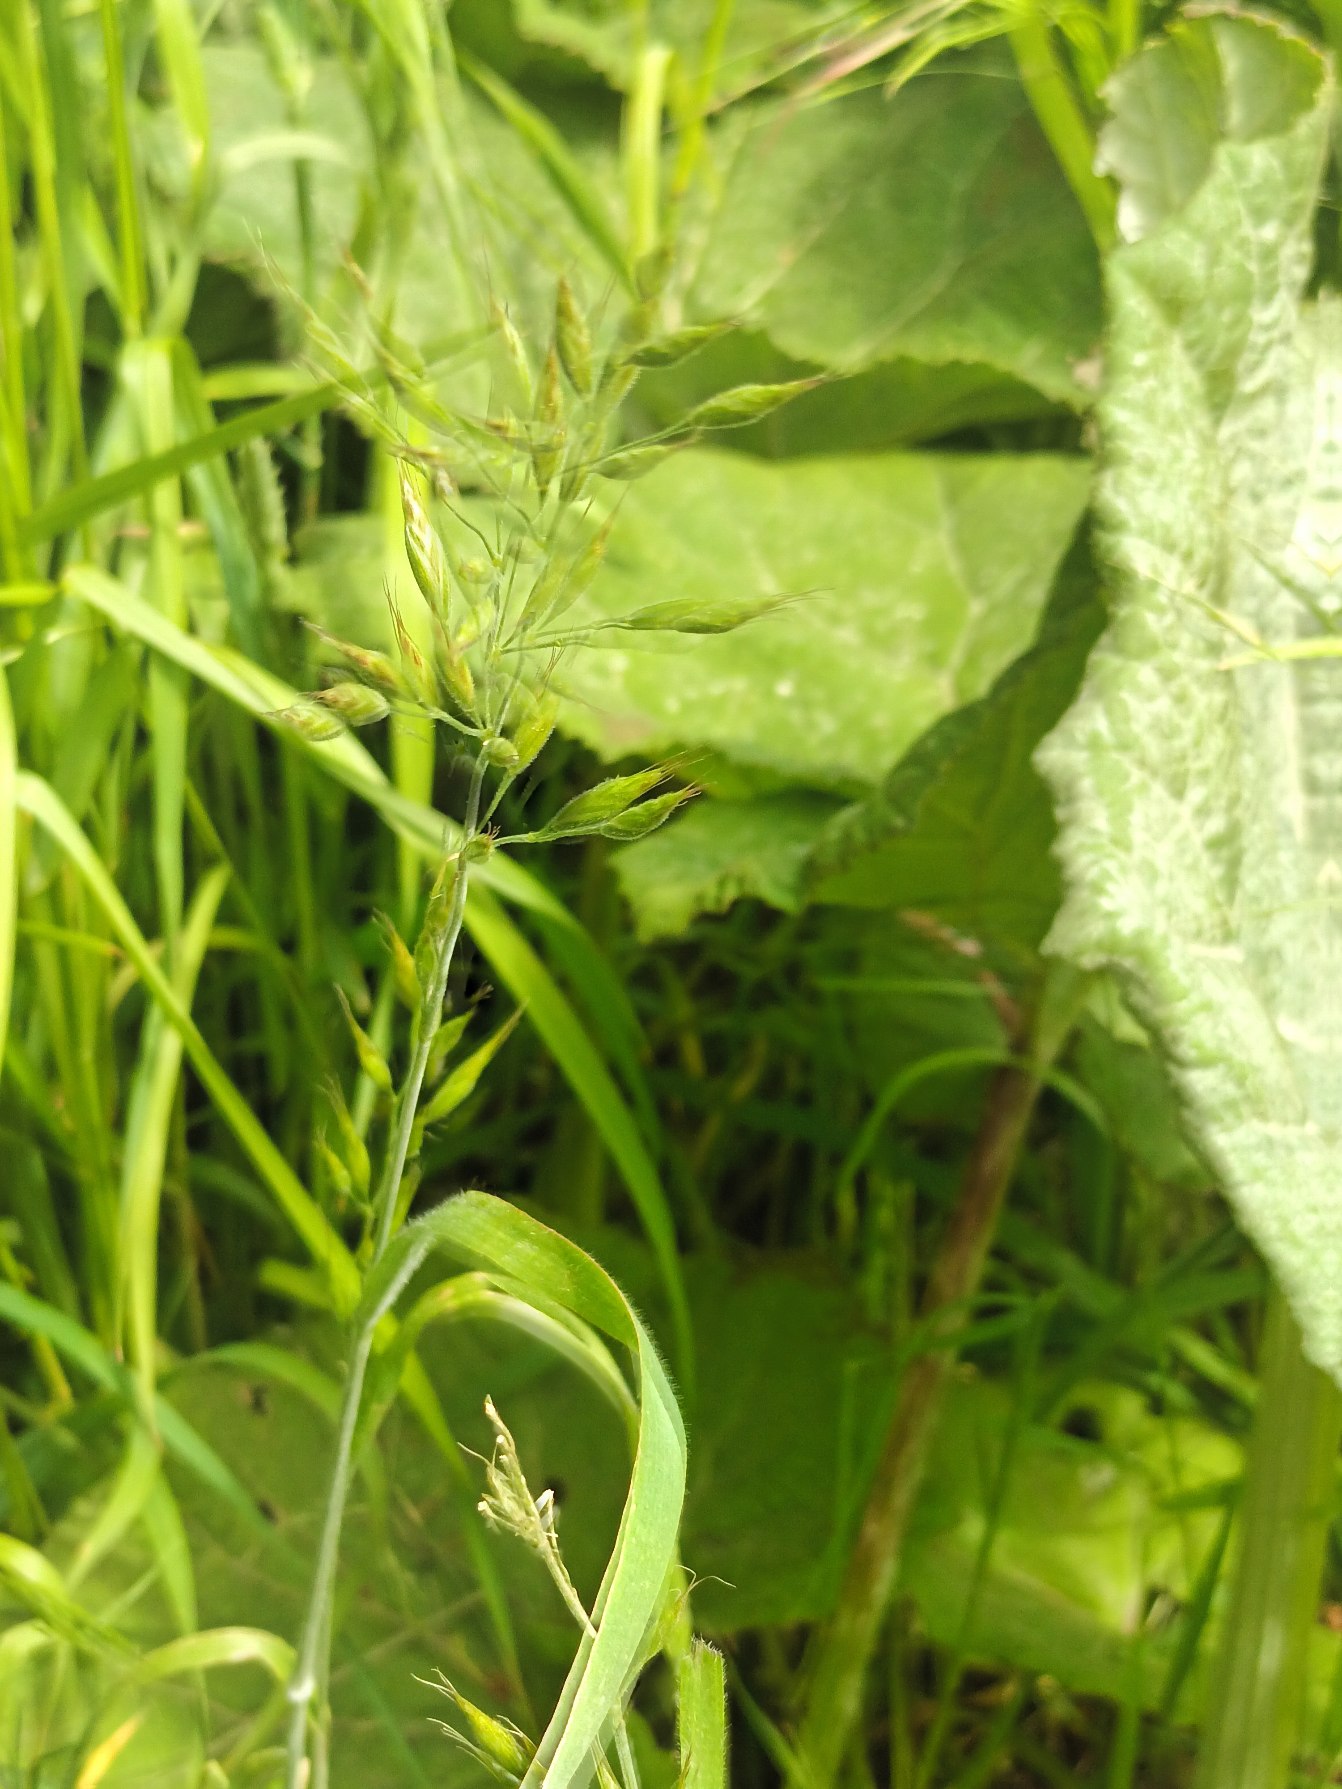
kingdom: Plantae
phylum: Tracheophyta
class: Liliopsida
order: Poales
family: Poaceae
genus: Bromus
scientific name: Bromus hordeaceus
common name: Blød hejre
